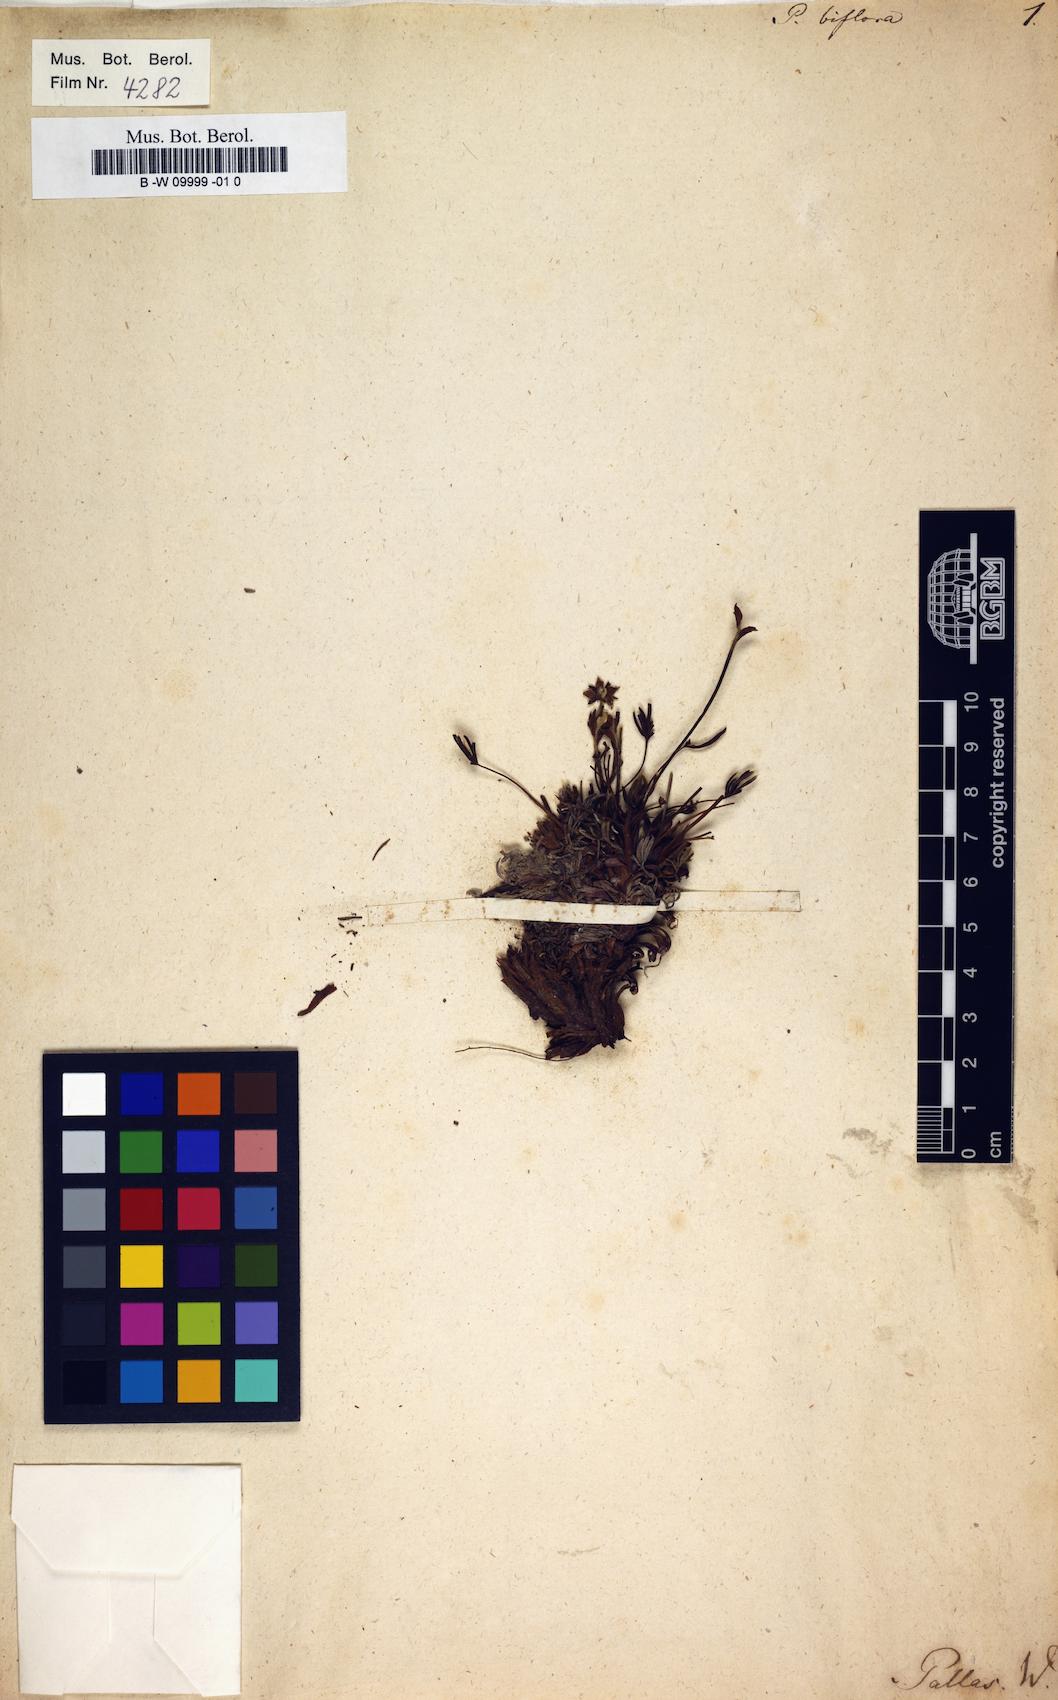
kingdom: Plantae
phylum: Tracheophyta
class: Magnoliopsida
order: Rosales
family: Rosaceae
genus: Potentilla
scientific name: Potentilla biflora
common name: Two-flowered cinquefoil
